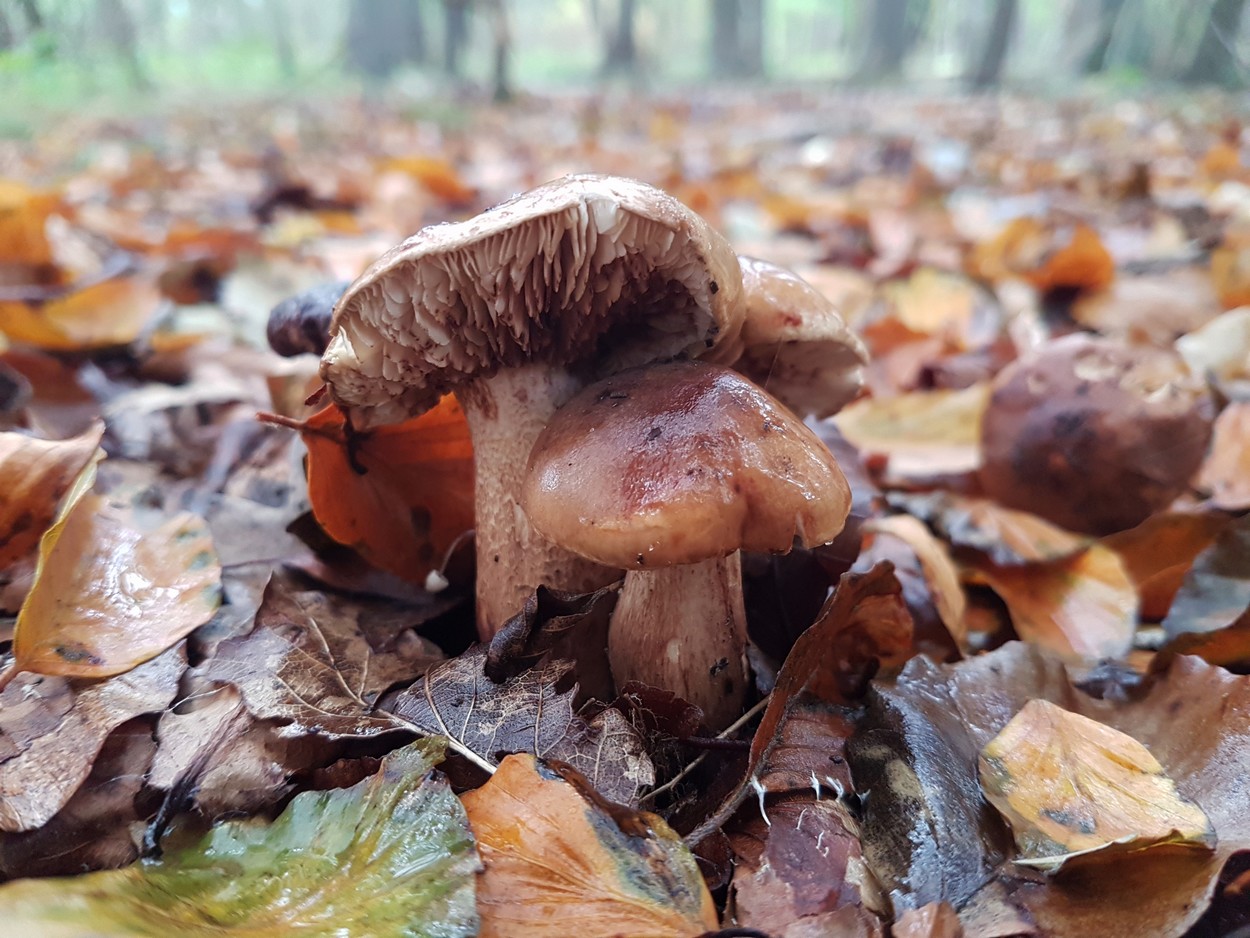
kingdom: Fungi
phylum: Basidiomycota
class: Agaricomycetes
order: Agaricales
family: Tricholomataceae
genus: Tricholoma
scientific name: Tricholoma ustale
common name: sveden ridderhat
